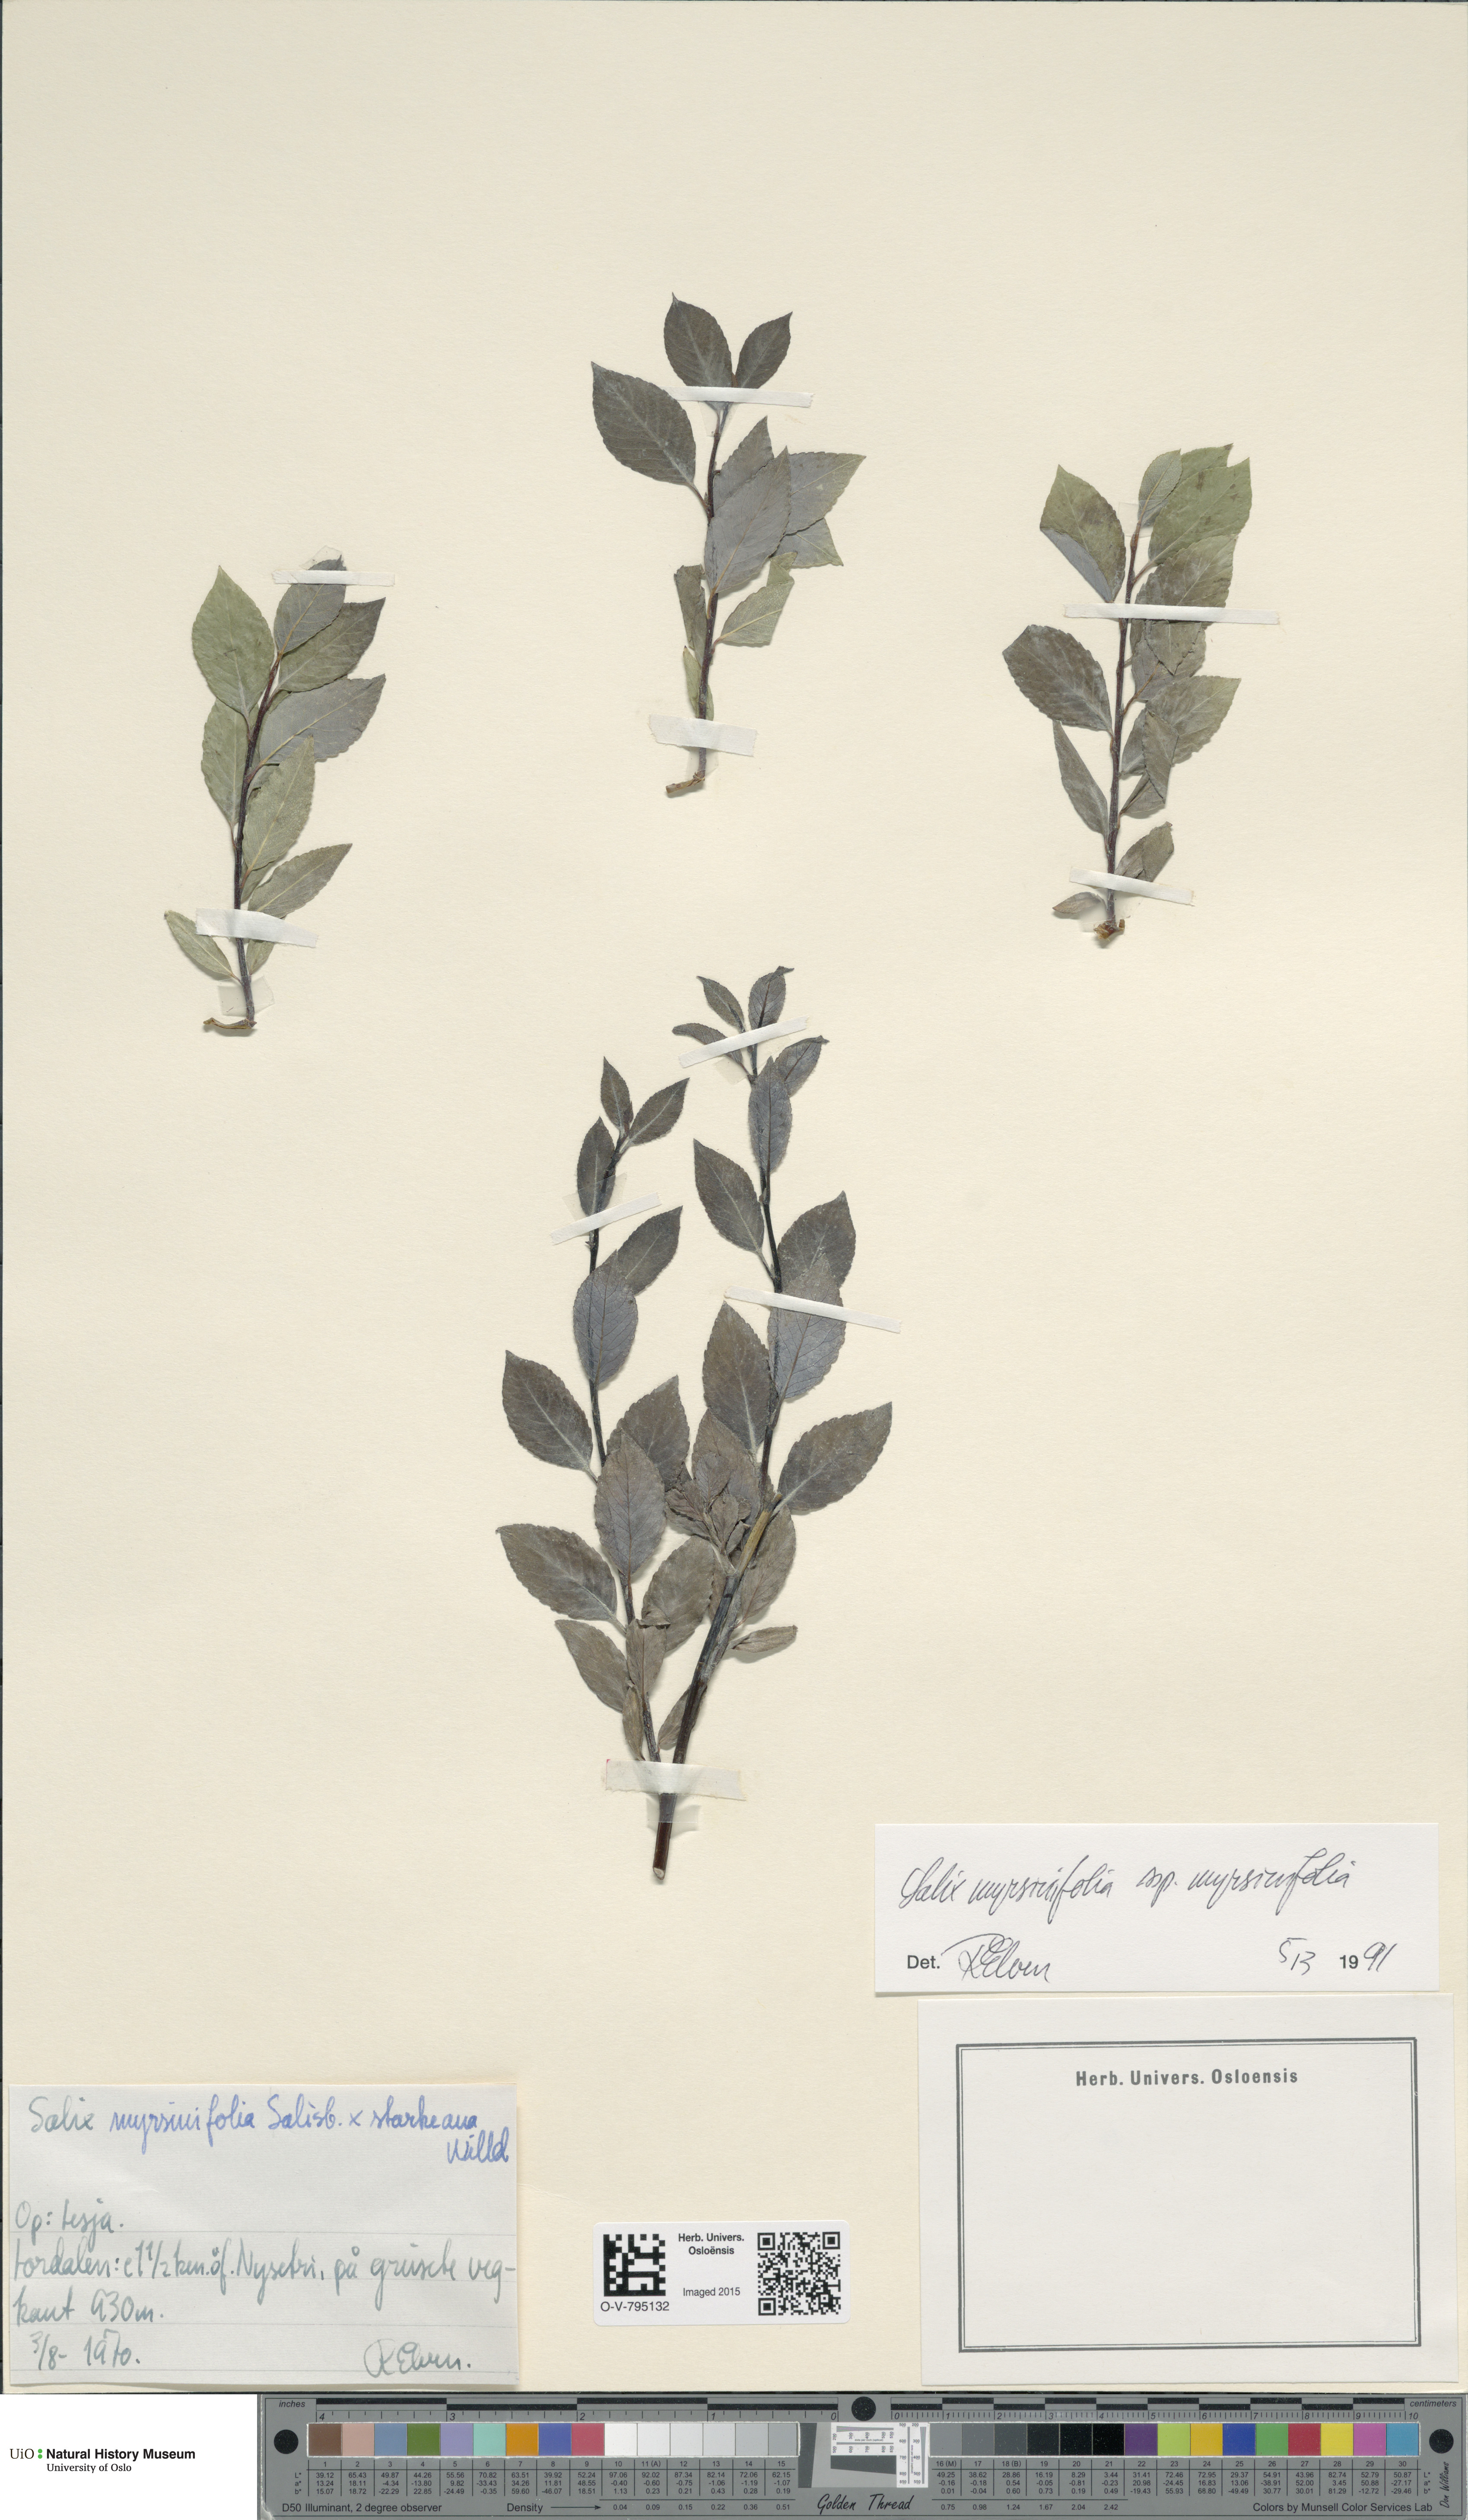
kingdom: Plantae
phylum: Tracheophyta
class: Magnoliopsida
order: Malpighiales
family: Salicaceae
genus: Salix
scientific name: Salix myrsinifolia
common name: Dark-leaved willow
